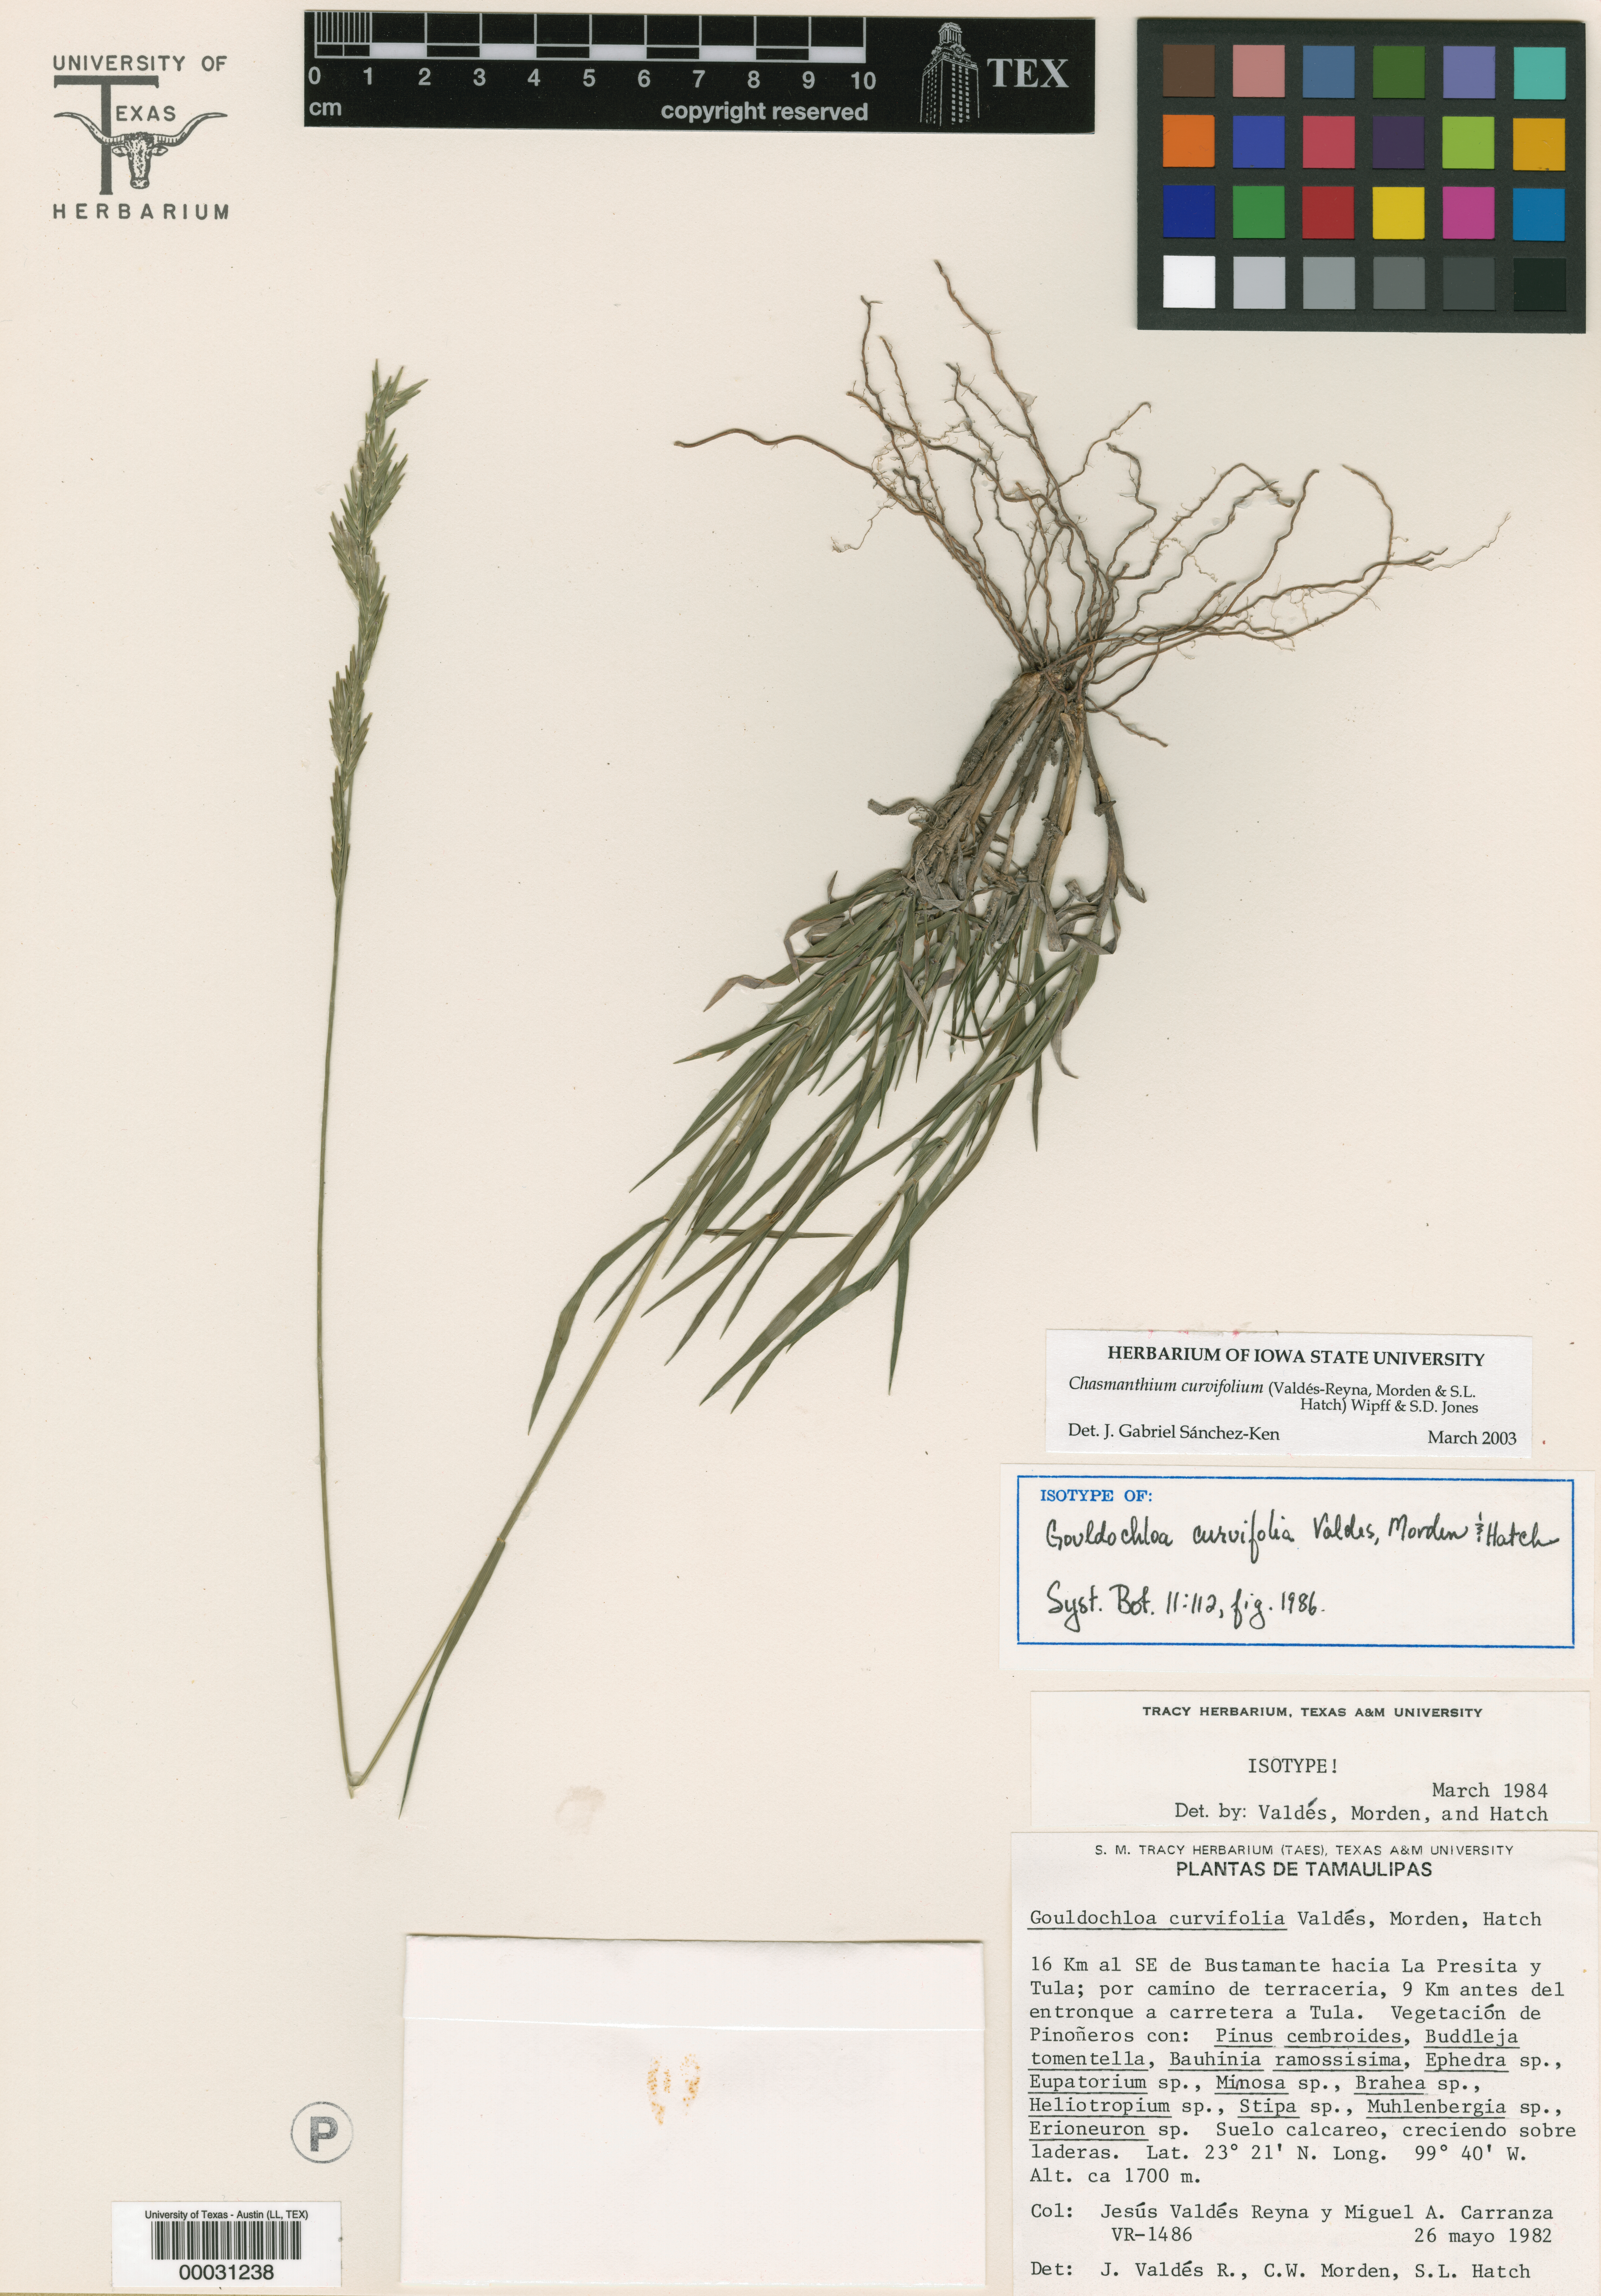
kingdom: Plantae
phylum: Tracheophyta
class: Liliopsida
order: Poales
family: Poaceae
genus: Chasmanthium
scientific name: Chasmanthium curvifolium
